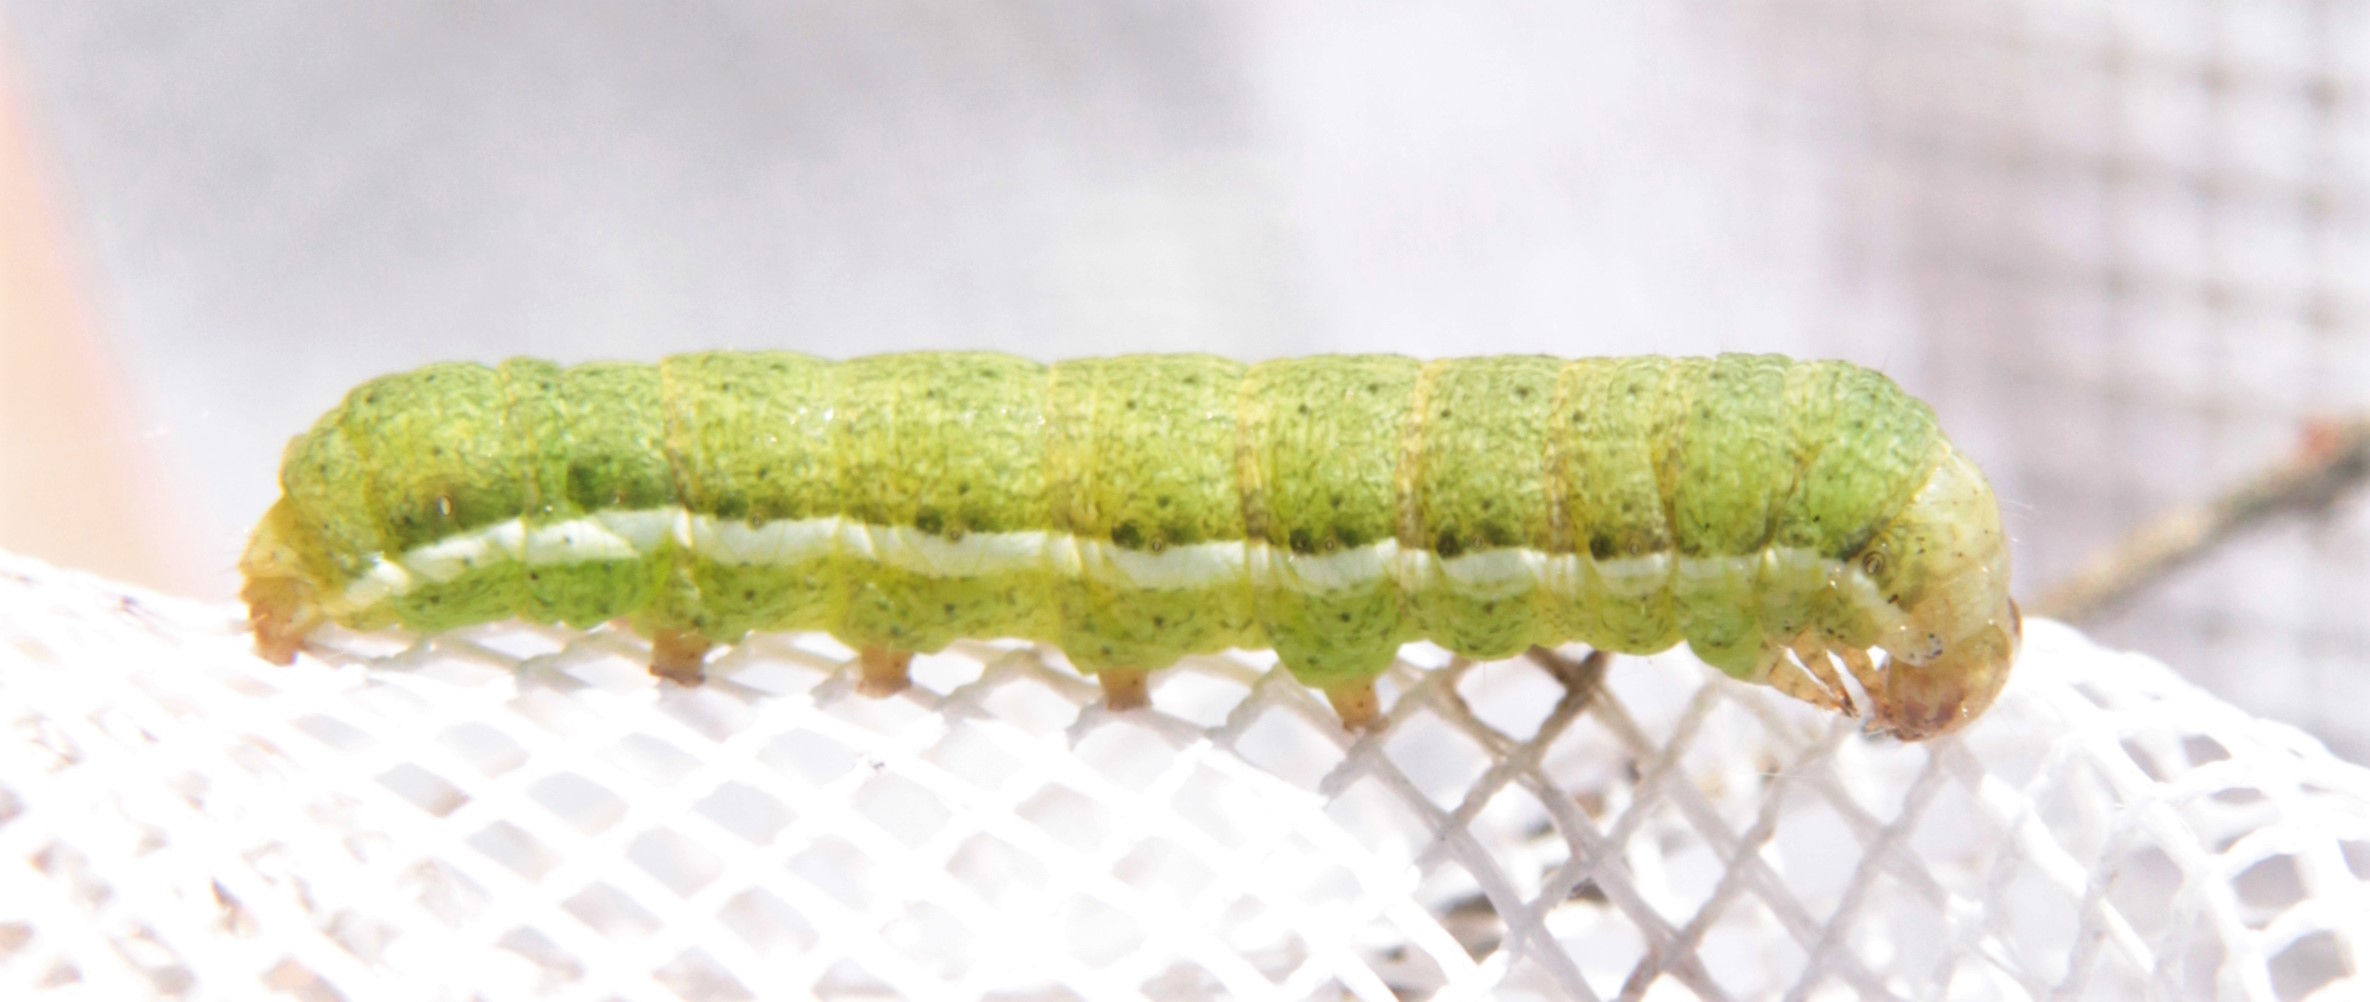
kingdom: Animalia
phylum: Arthropoda
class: Insecta
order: Lepidoptera
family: Noctuidae
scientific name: Noctuidae
